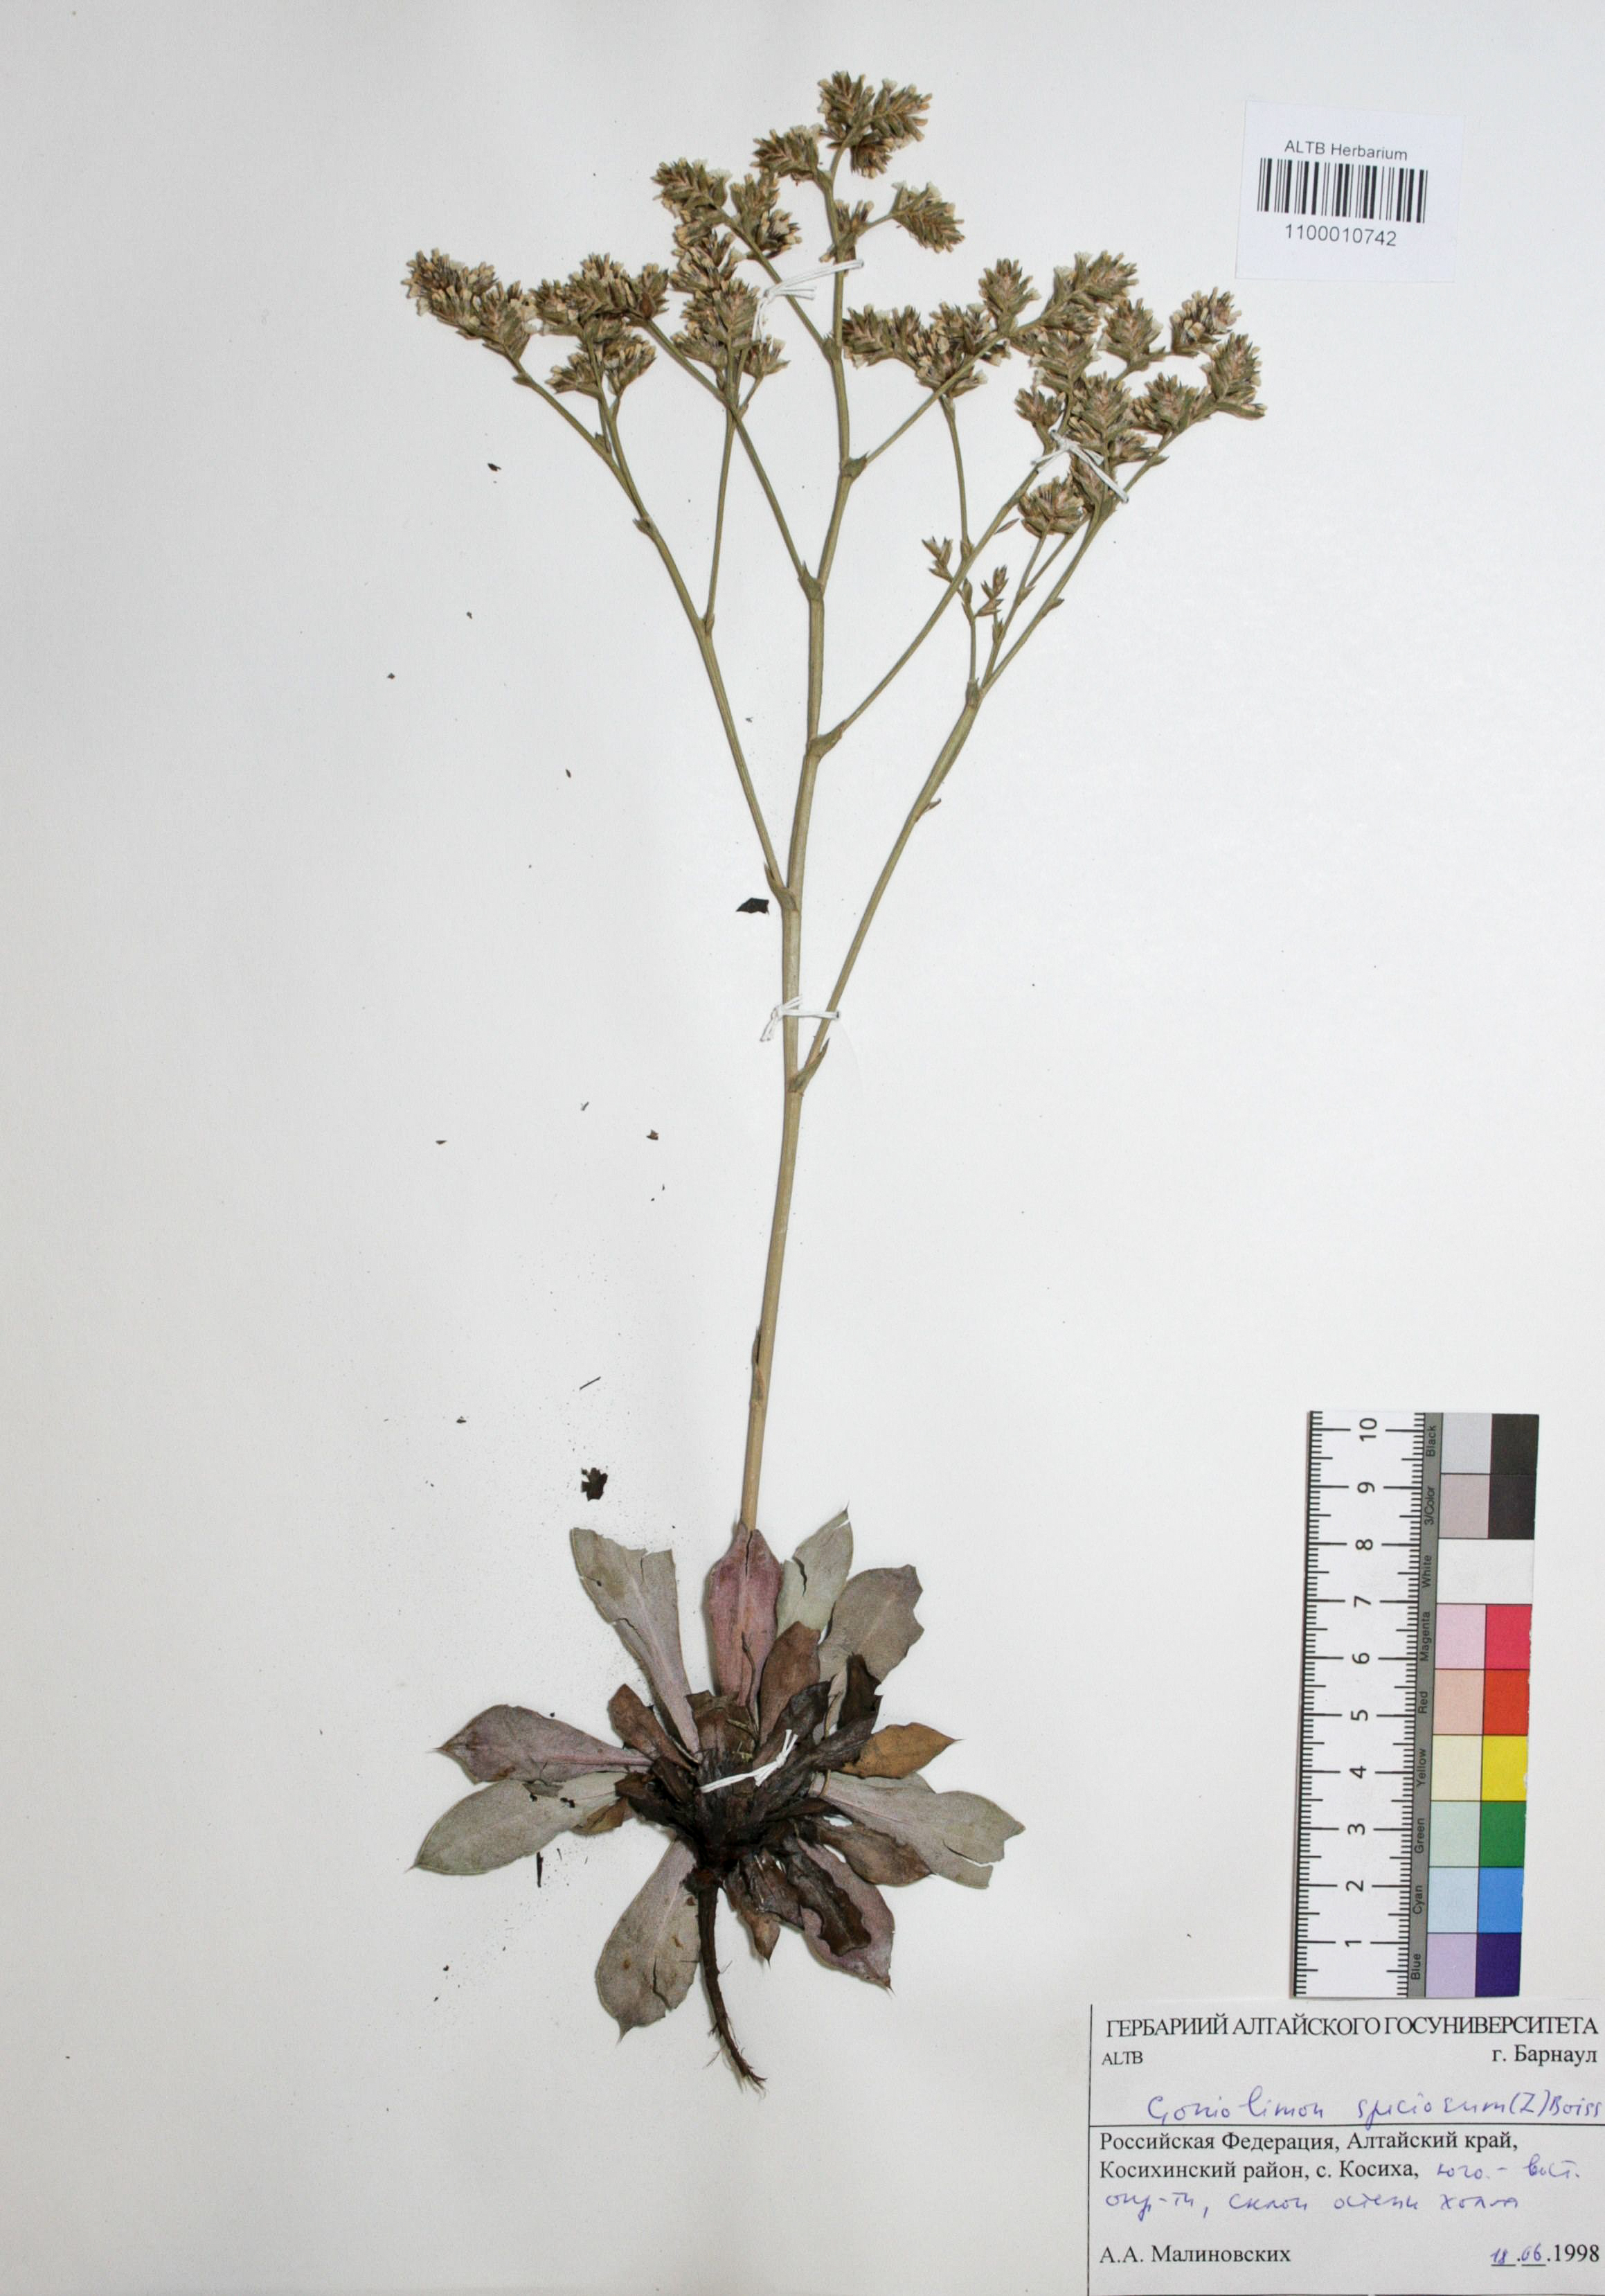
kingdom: Plantae
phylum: Tracheophyta
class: Magnoliopsida
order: Caryophyllales
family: Plumbaginaceae
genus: Goniolimon
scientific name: Goniolimon speciosum
